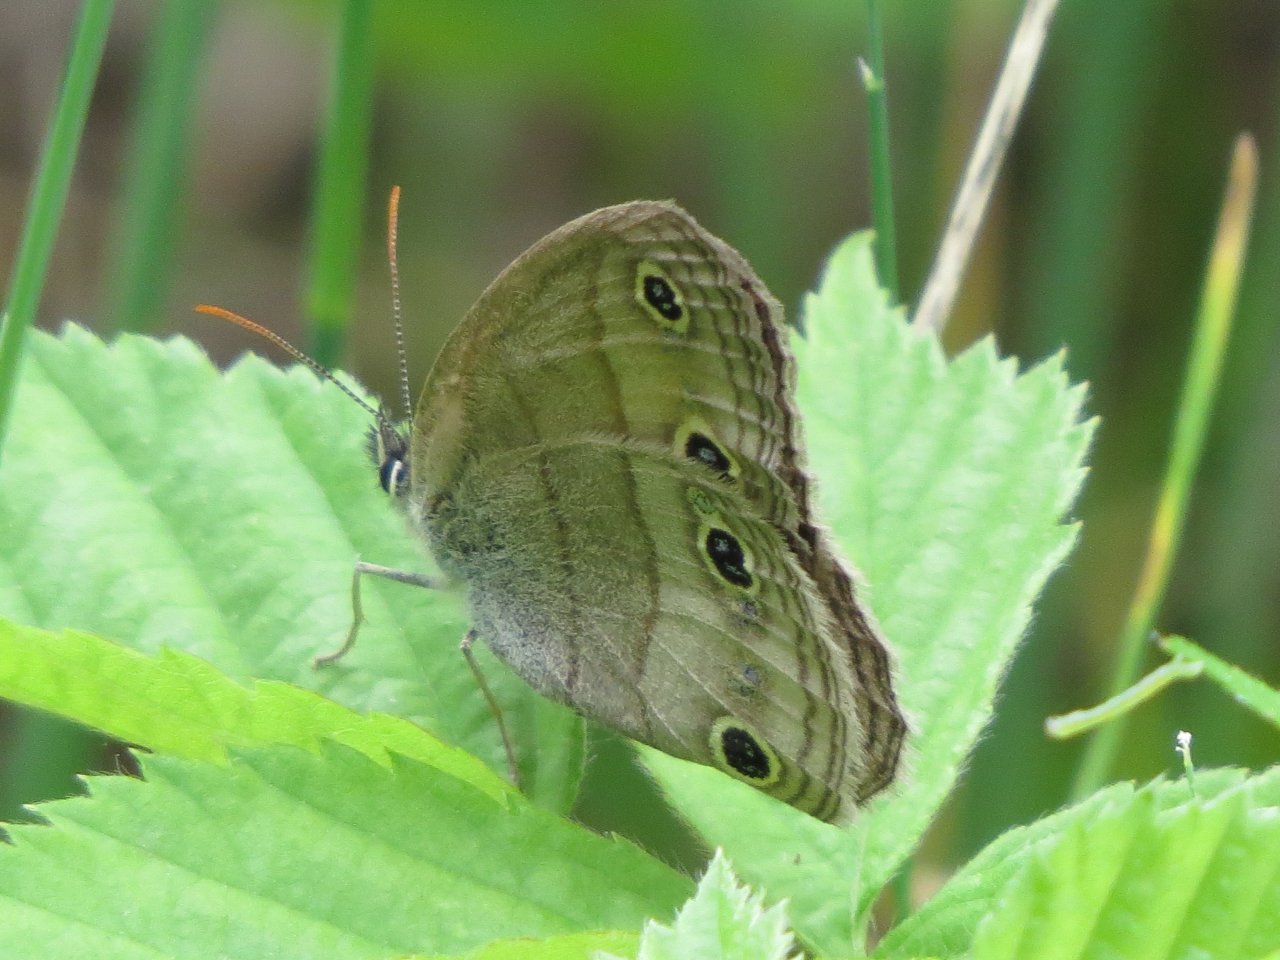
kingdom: Animalia
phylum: Arthropoda
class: Insecta
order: Lepidoptera
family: Nymphalidae
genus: Euptychia
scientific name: Euptychia cymela
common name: Little Wood Satyr
